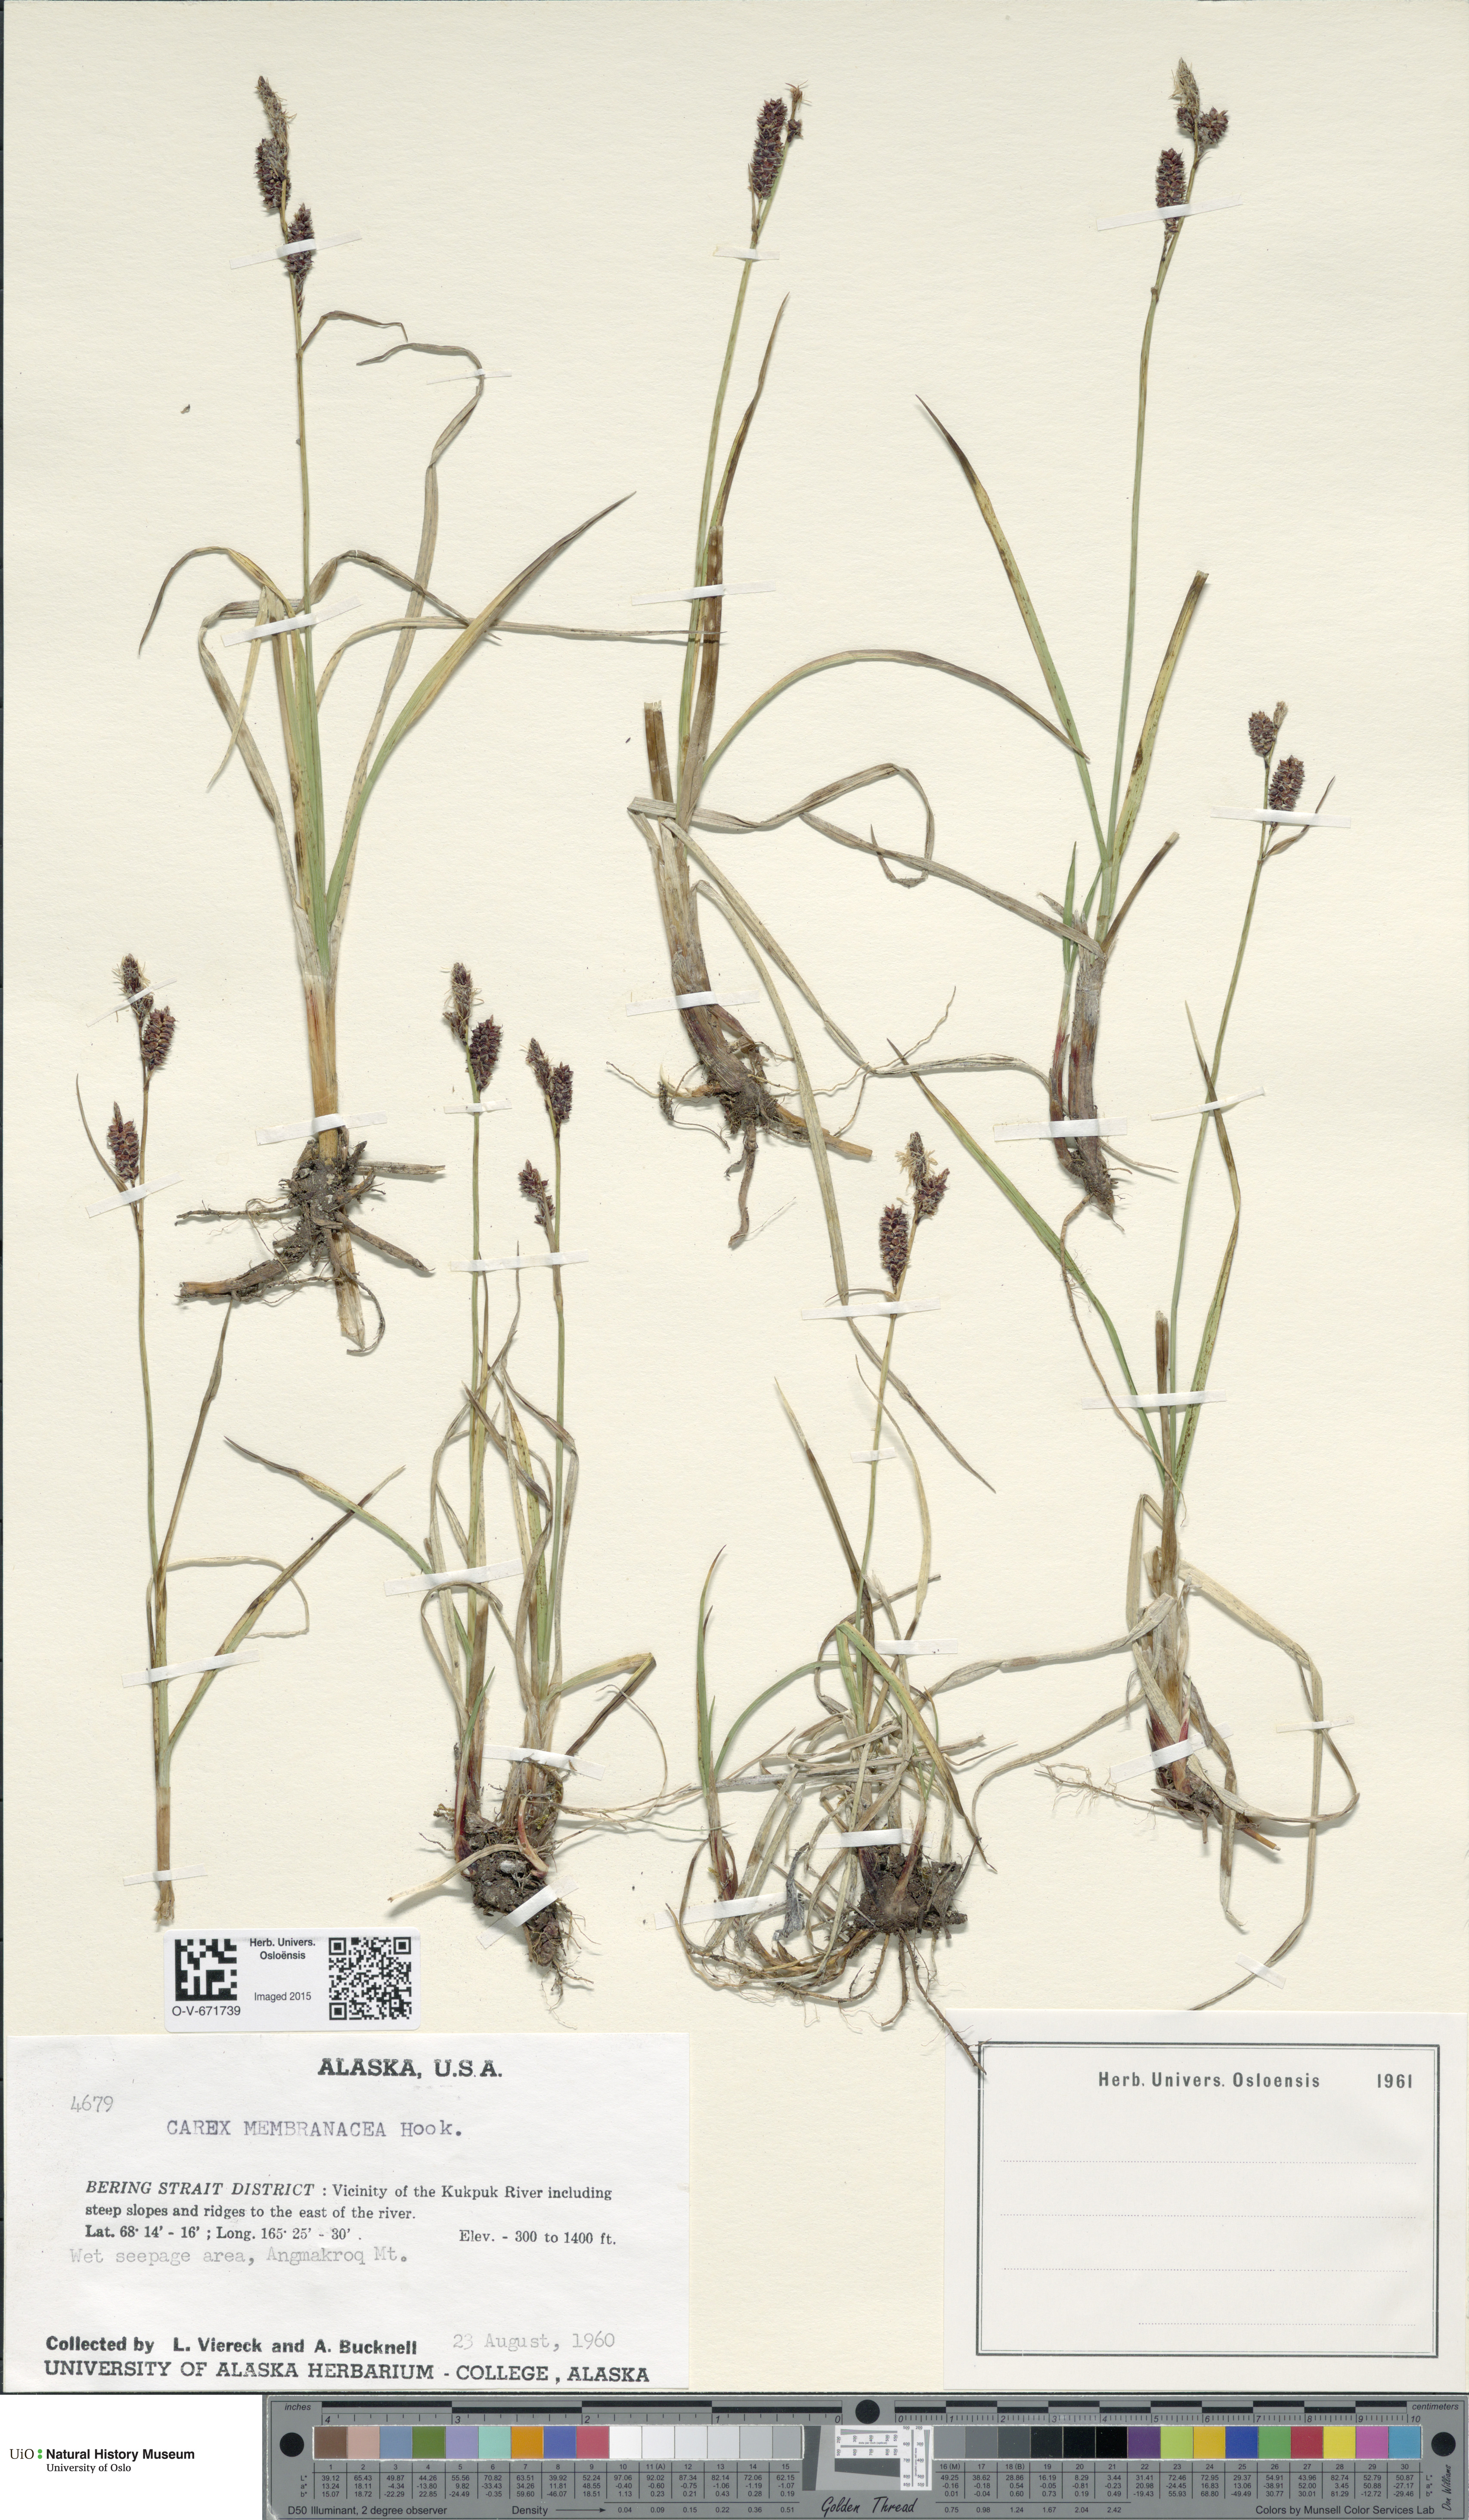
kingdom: Plantae
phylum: Tracheophyta
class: Liliopsida
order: Poales
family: Cyperaceae
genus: Carex
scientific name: Carex membranacea
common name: Fragile sedge
